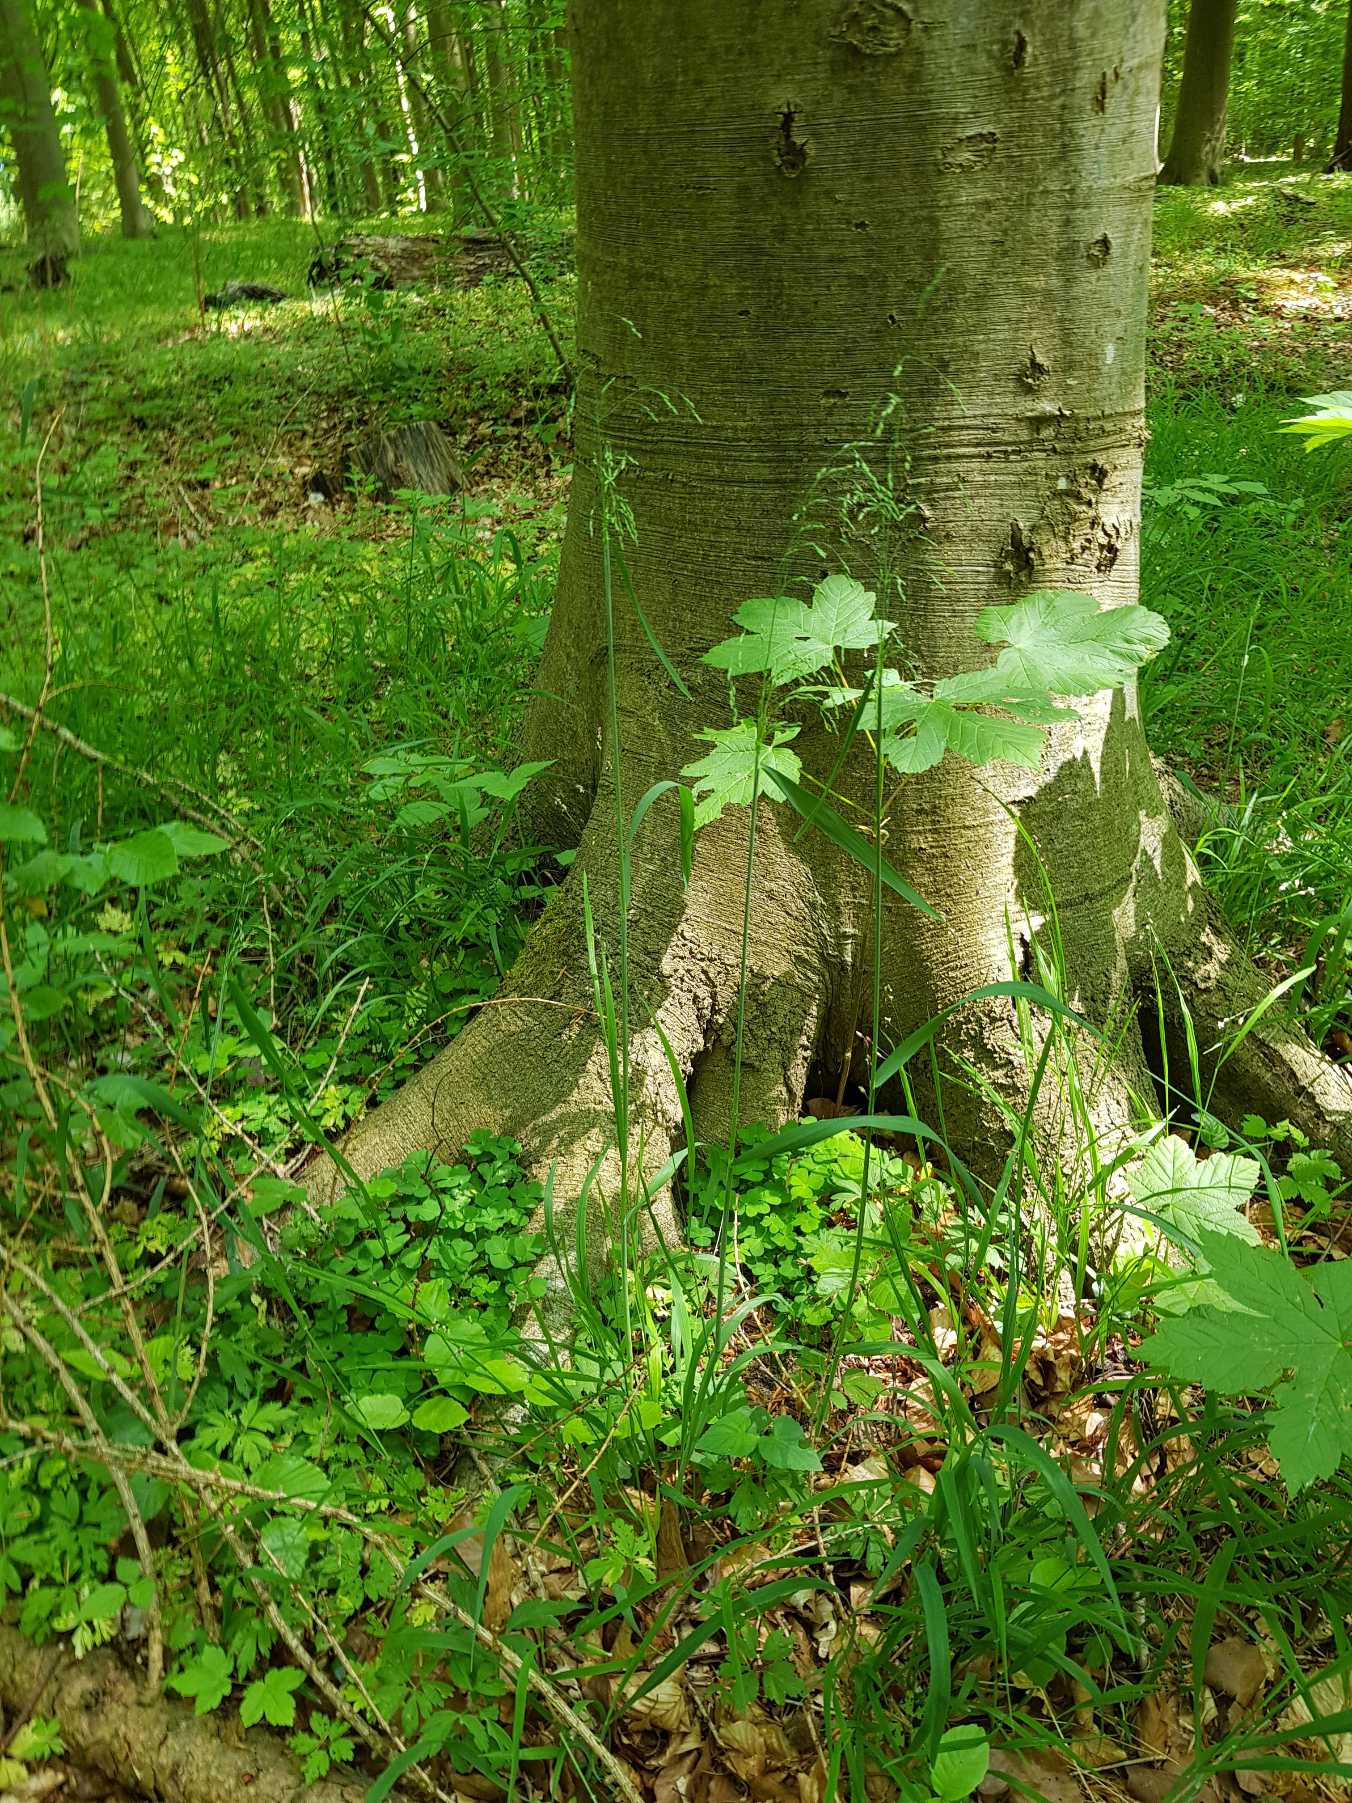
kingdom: Plantae
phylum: Tracheophyta
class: Liliopsida
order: Poales
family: Poaceae
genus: Milium
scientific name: Milium effusum
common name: Miliegræs
